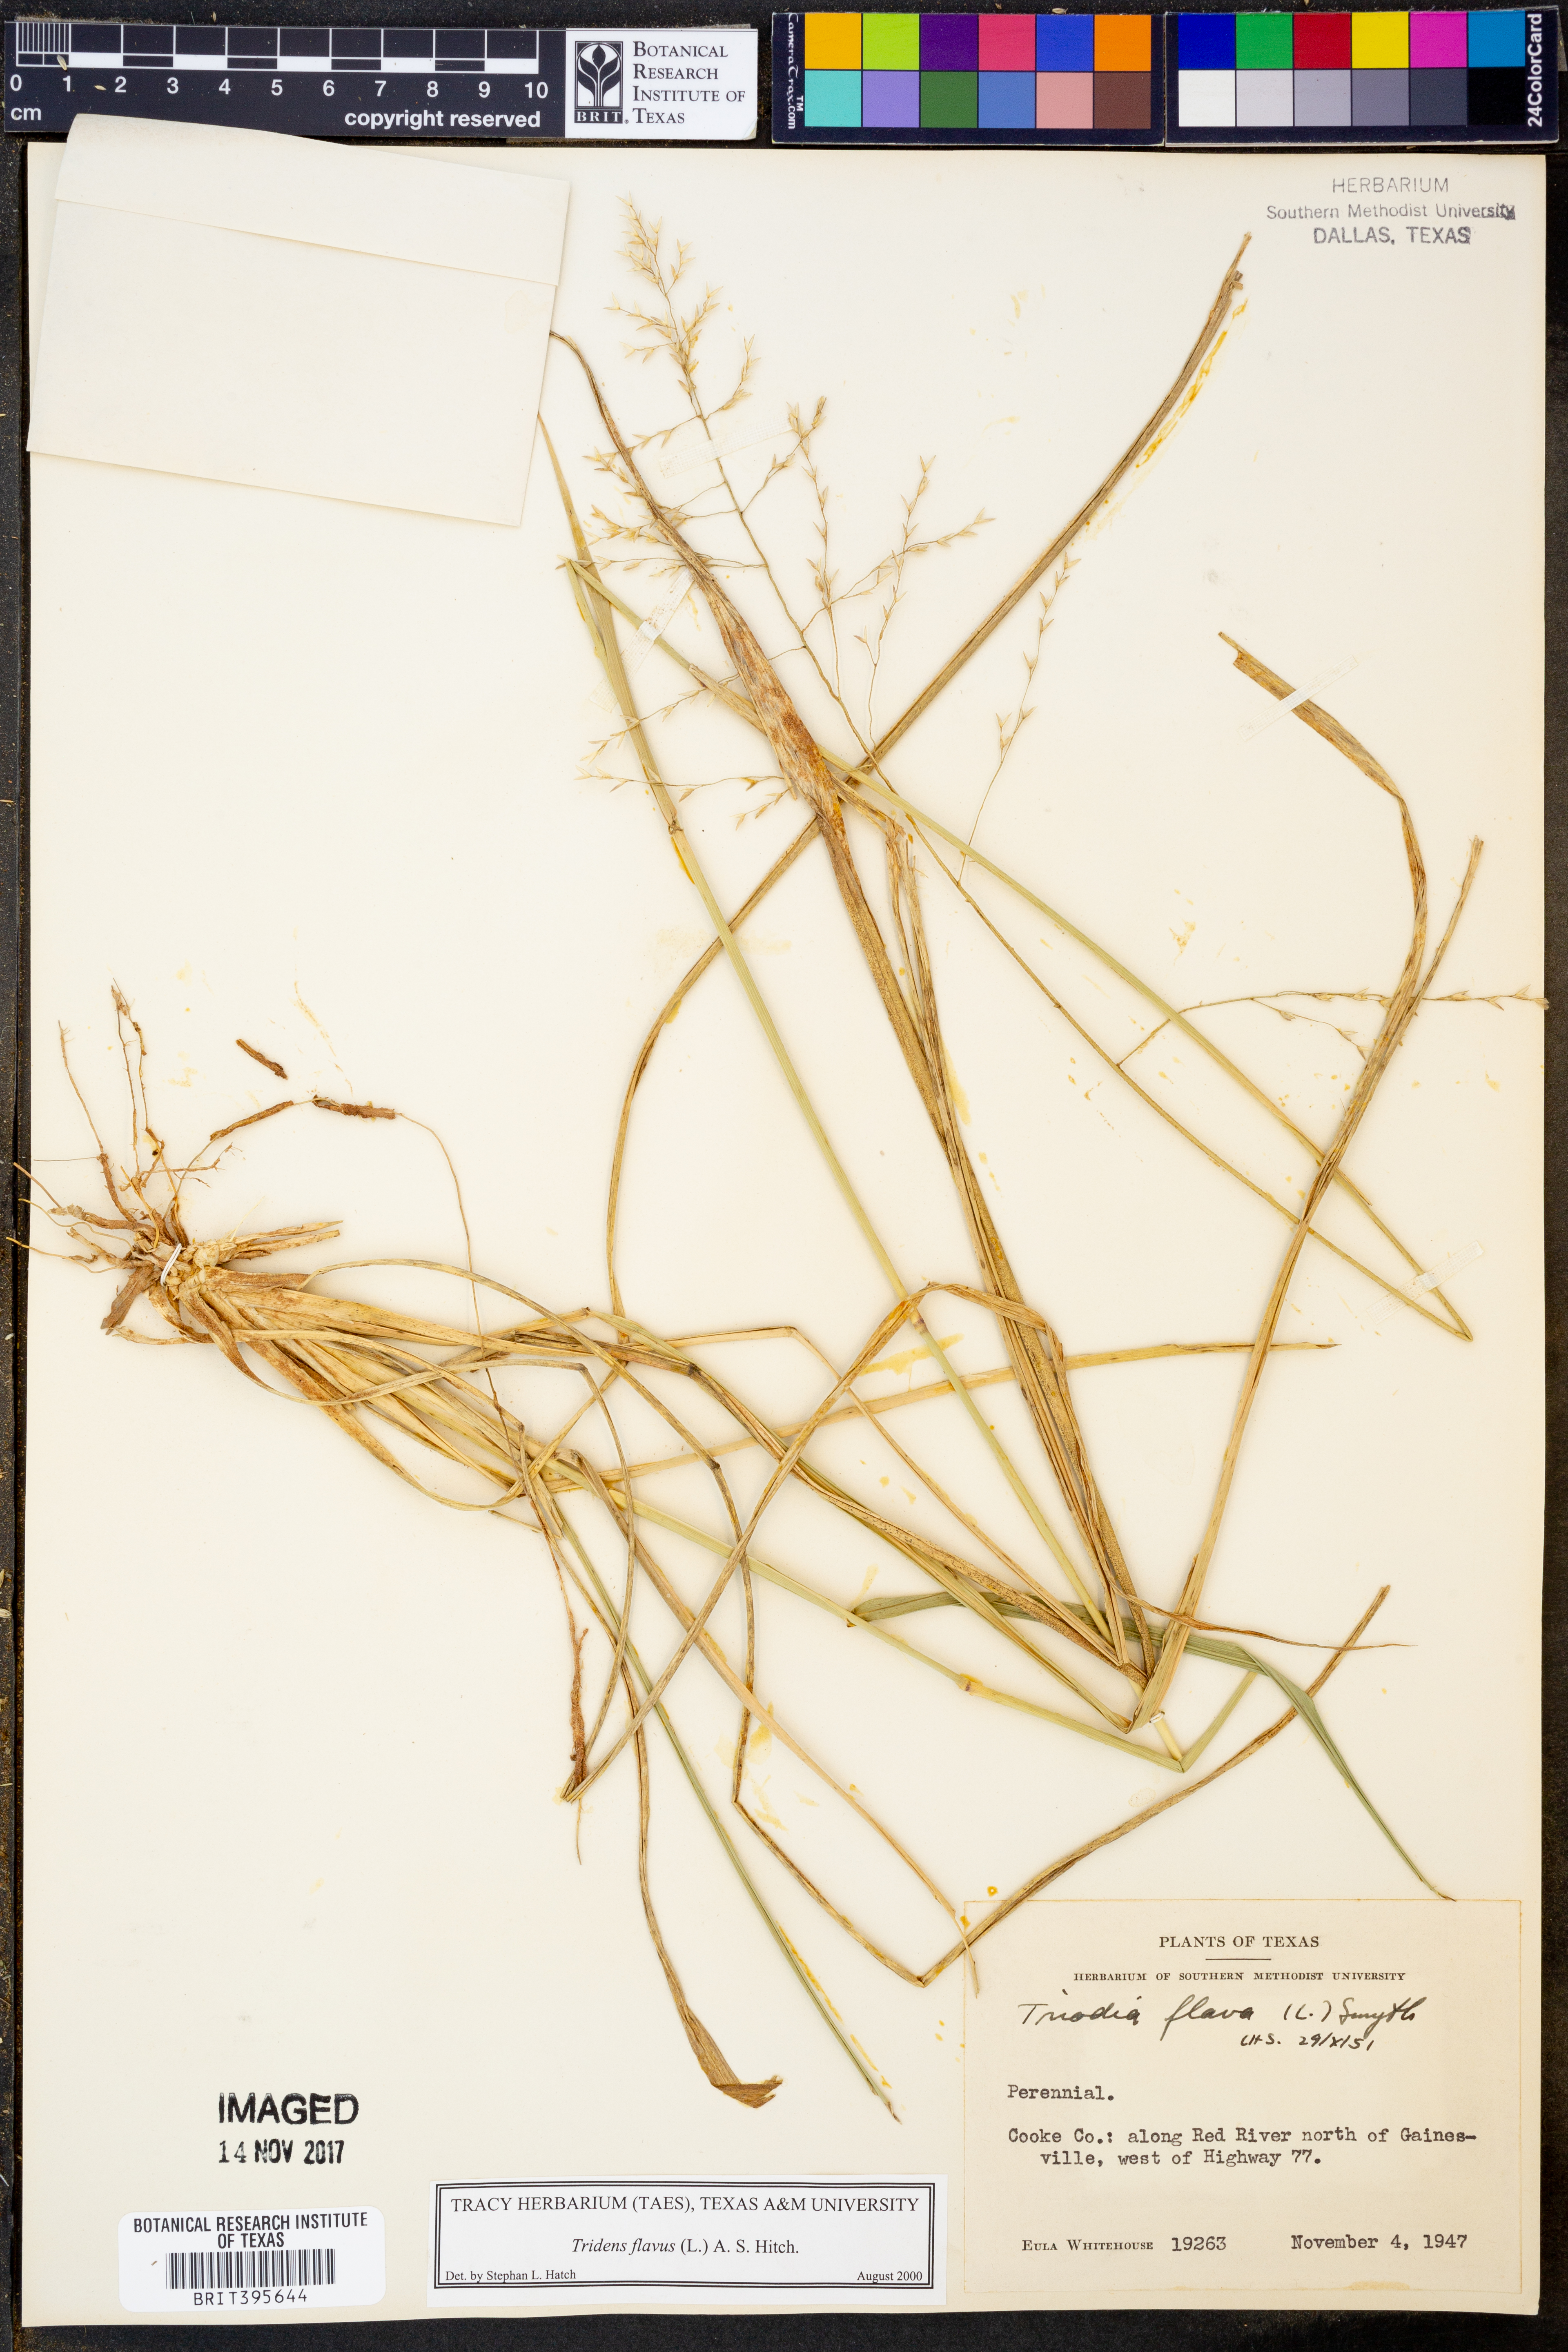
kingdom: Plantae
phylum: Tracheophyta
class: Liliopsida
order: Poales
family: Poaceae
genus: Tridens
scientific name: Tridens flavus
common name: Purpletop
